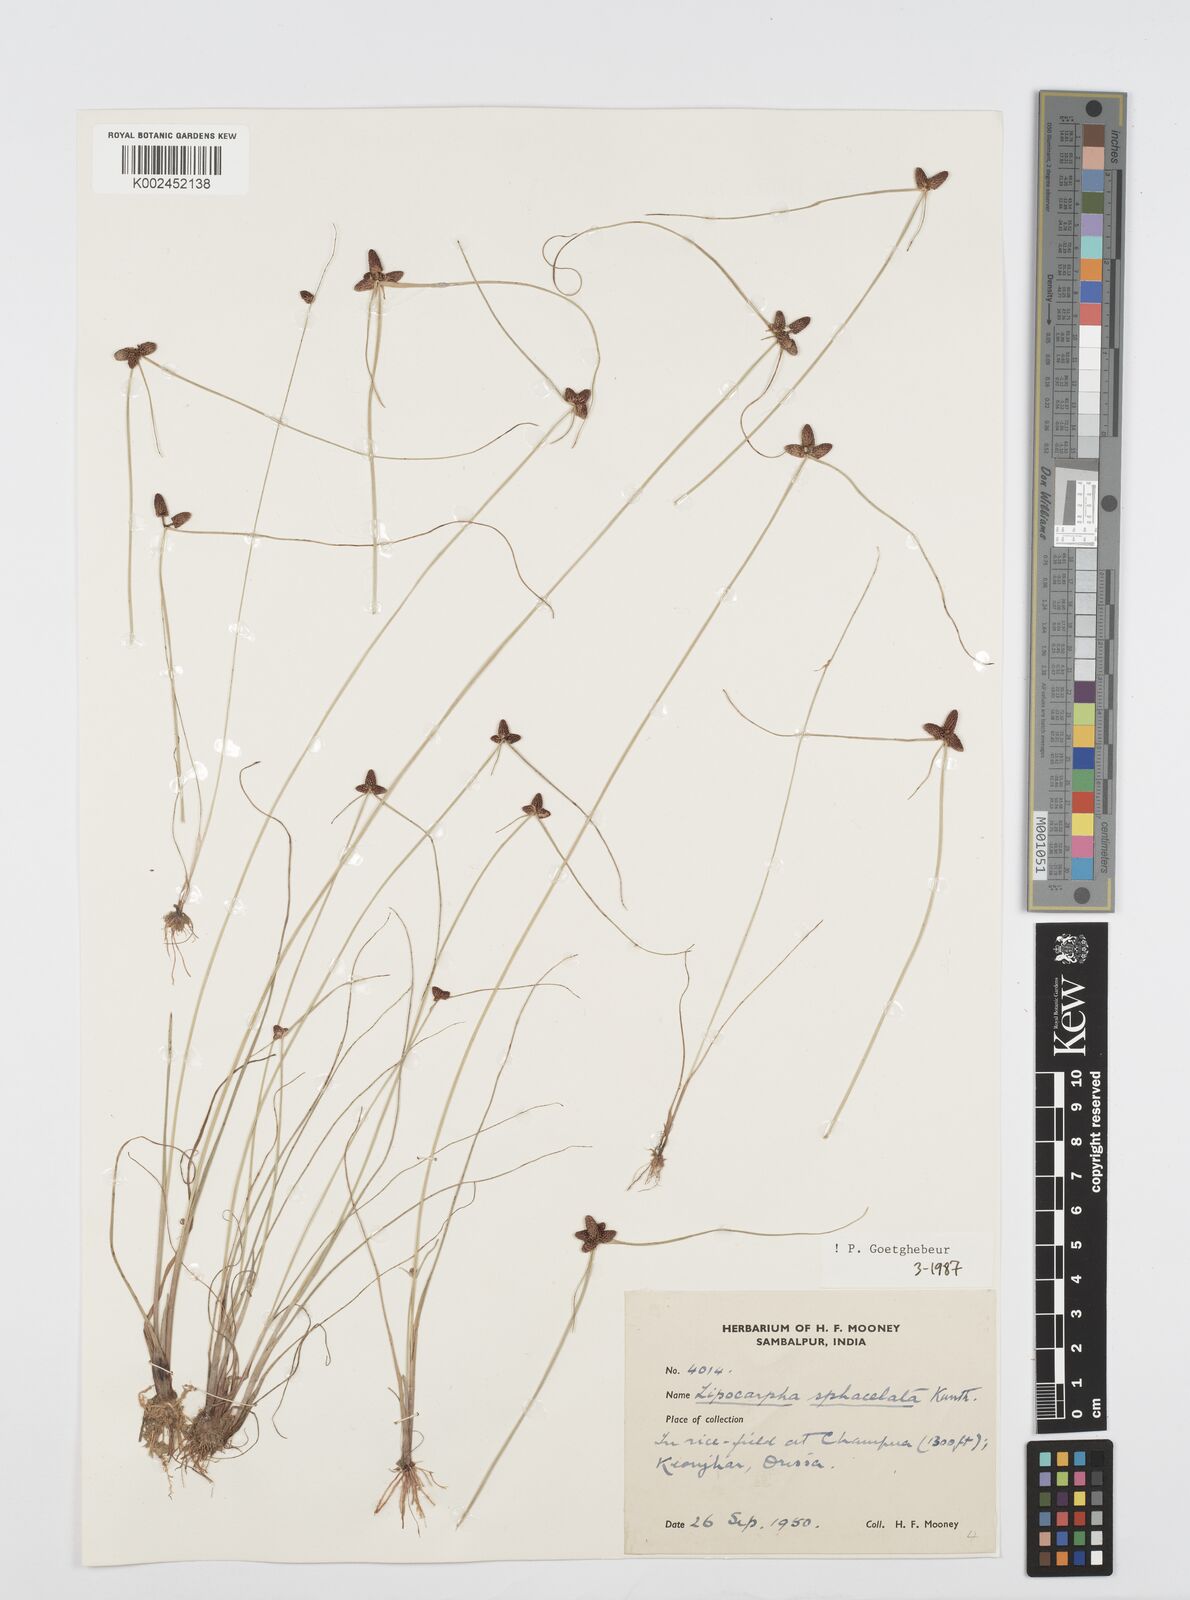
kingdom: Plantae
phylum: Tracheophyta
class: Liliopsida
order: Poales
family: Cyperaceae
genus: Cyperus
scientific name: Cyperus sphacelatus
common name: Roadside flatsedge
